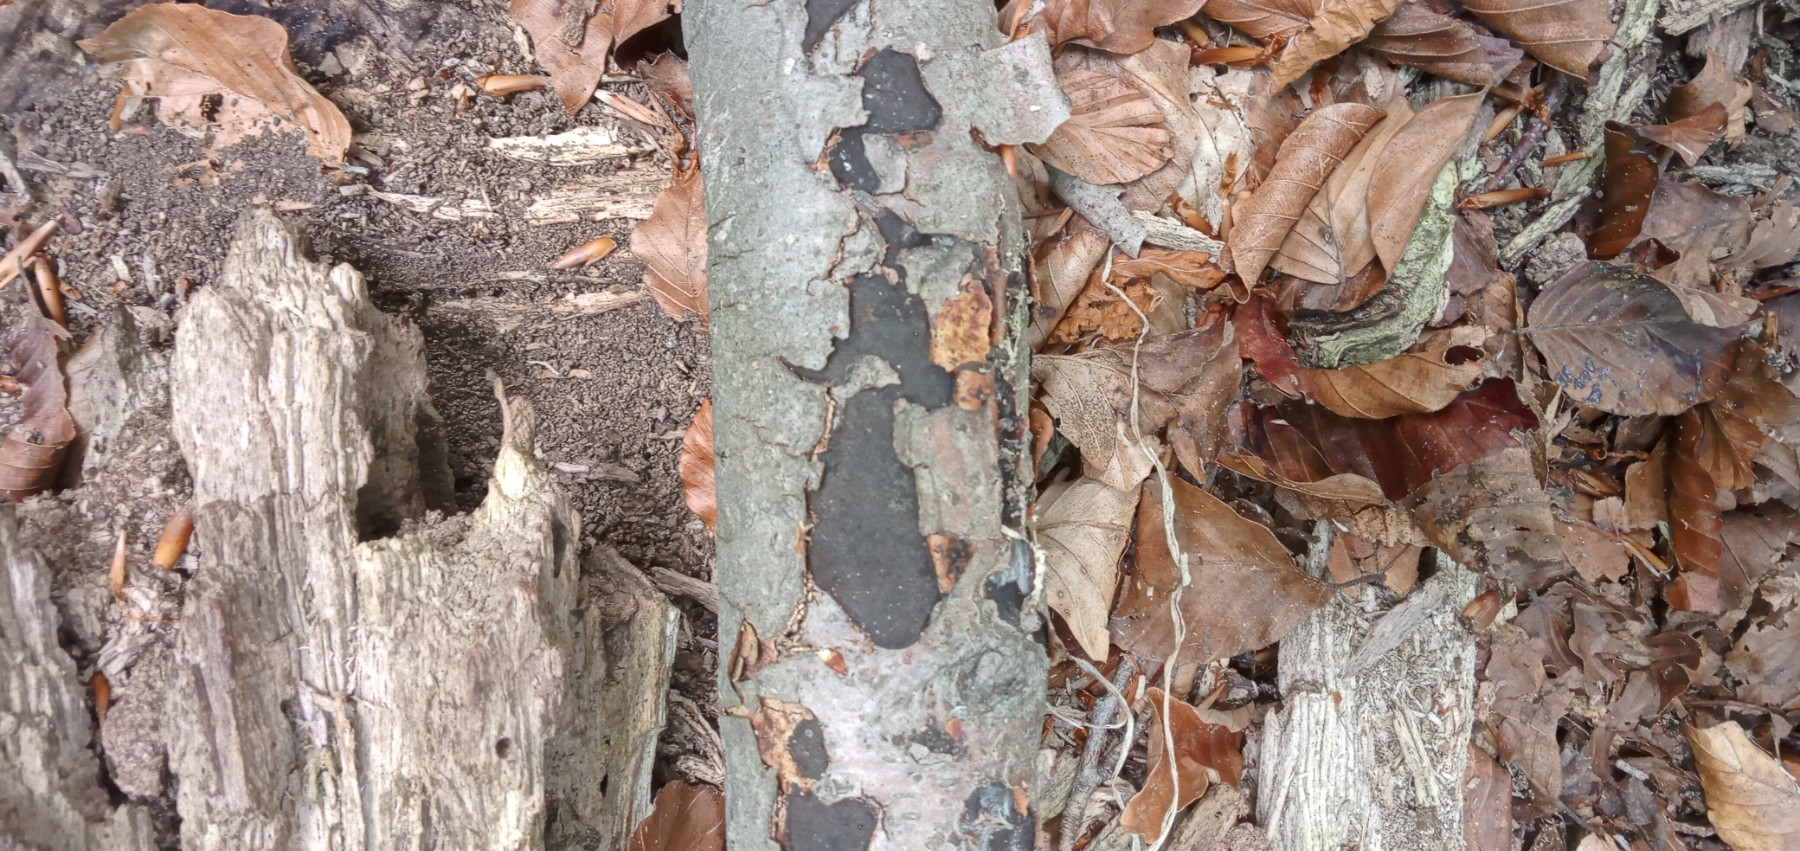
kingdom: Fungi
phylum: Ascomycota
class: Sordariomycetes
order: Xylariales
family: Graphostromataceae
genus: Biscogniauxia
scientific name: Biscogniauxia nummularia
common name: bøge-kulskive
